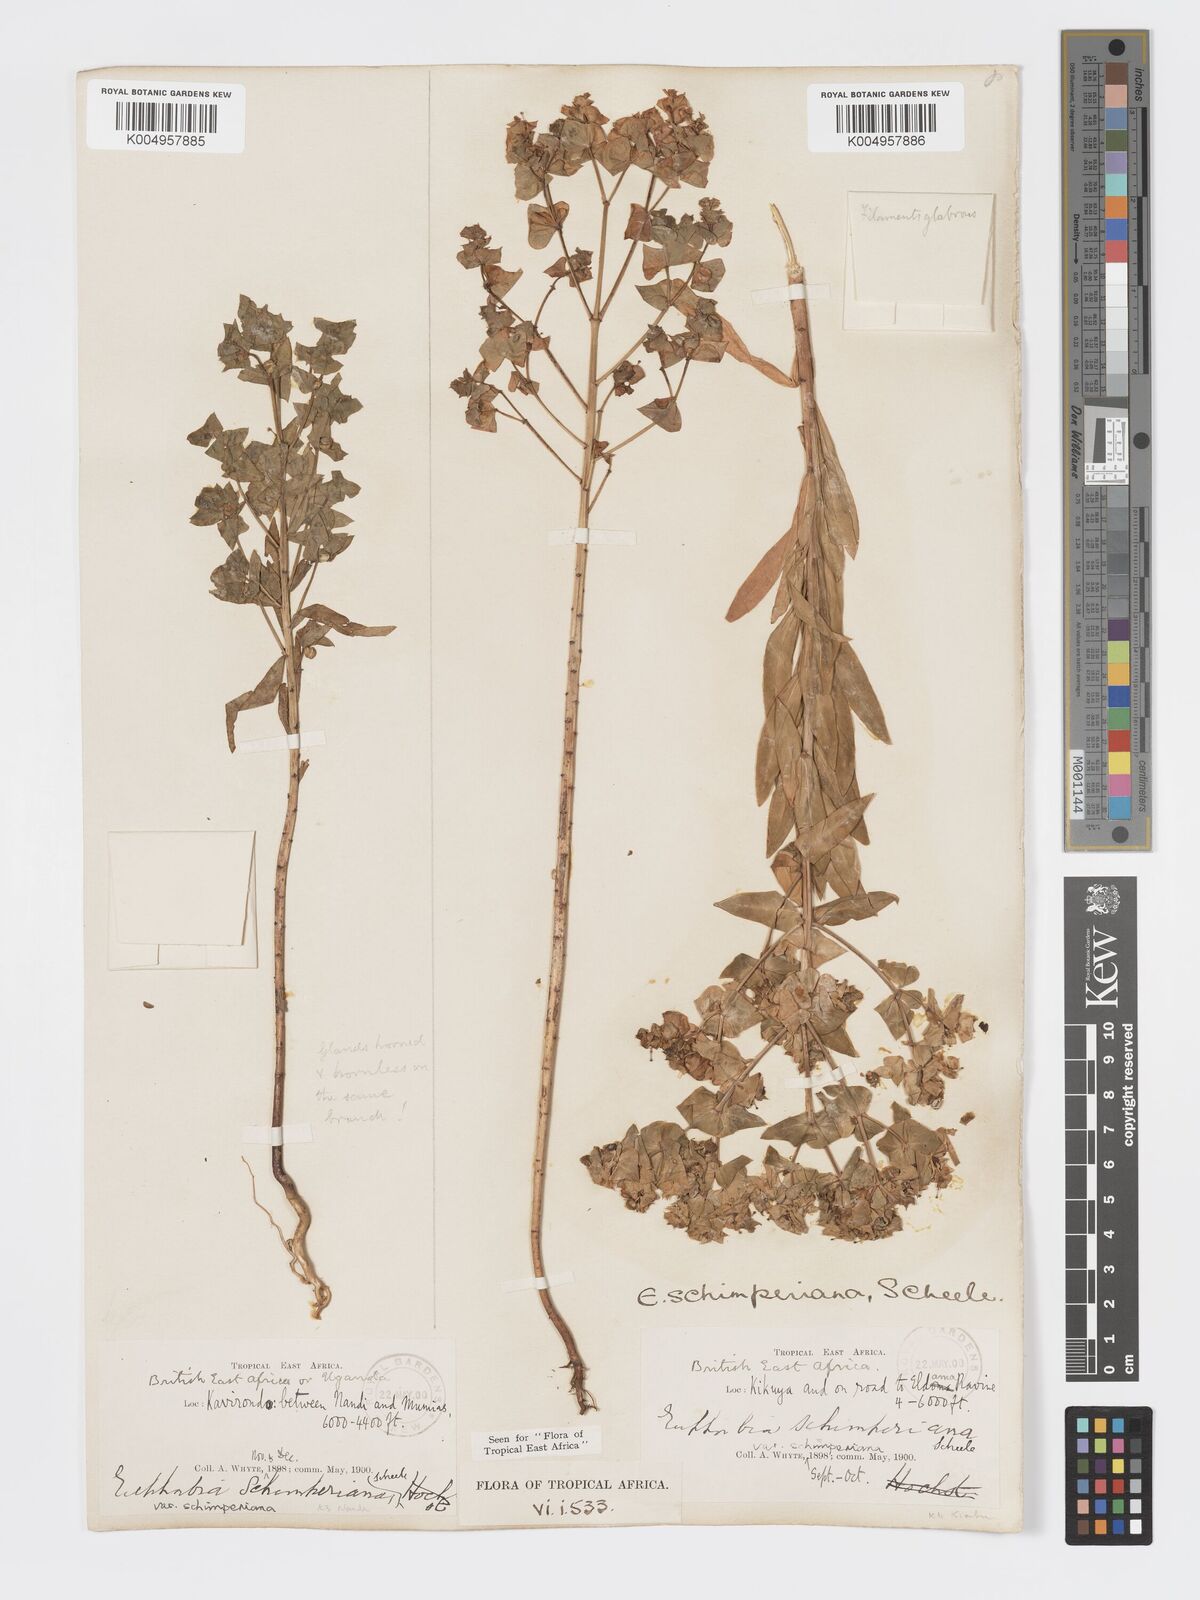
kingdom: Plantae
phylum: Tracheophyta
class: Magnoliopsida
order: Malpighiales
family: Euphorbiaceae
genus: Euphorbia
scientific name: Euphorbia schimperiana
